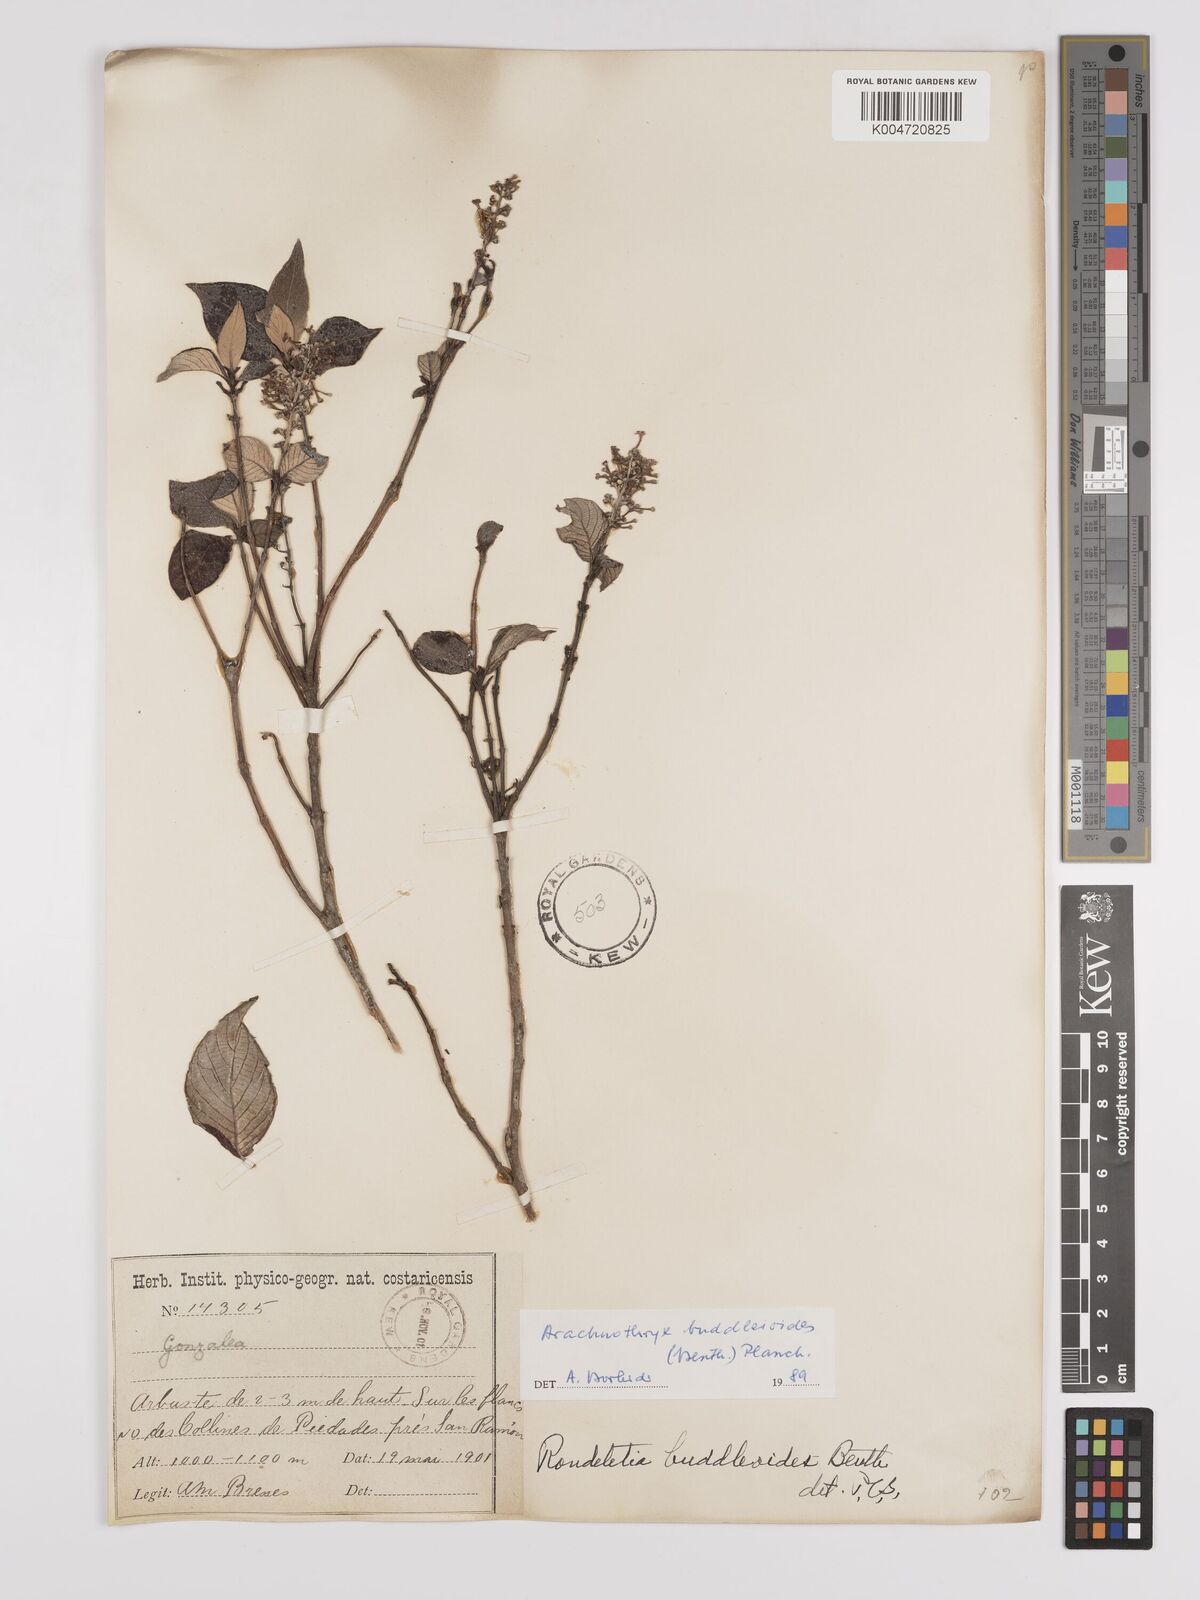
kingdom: Plantae
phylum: Tracheophyta
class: Magnoliopsida
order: Gentianales
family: Rubiaceae
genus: Arachnothryx
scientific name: Arachnothryx buddleioides
